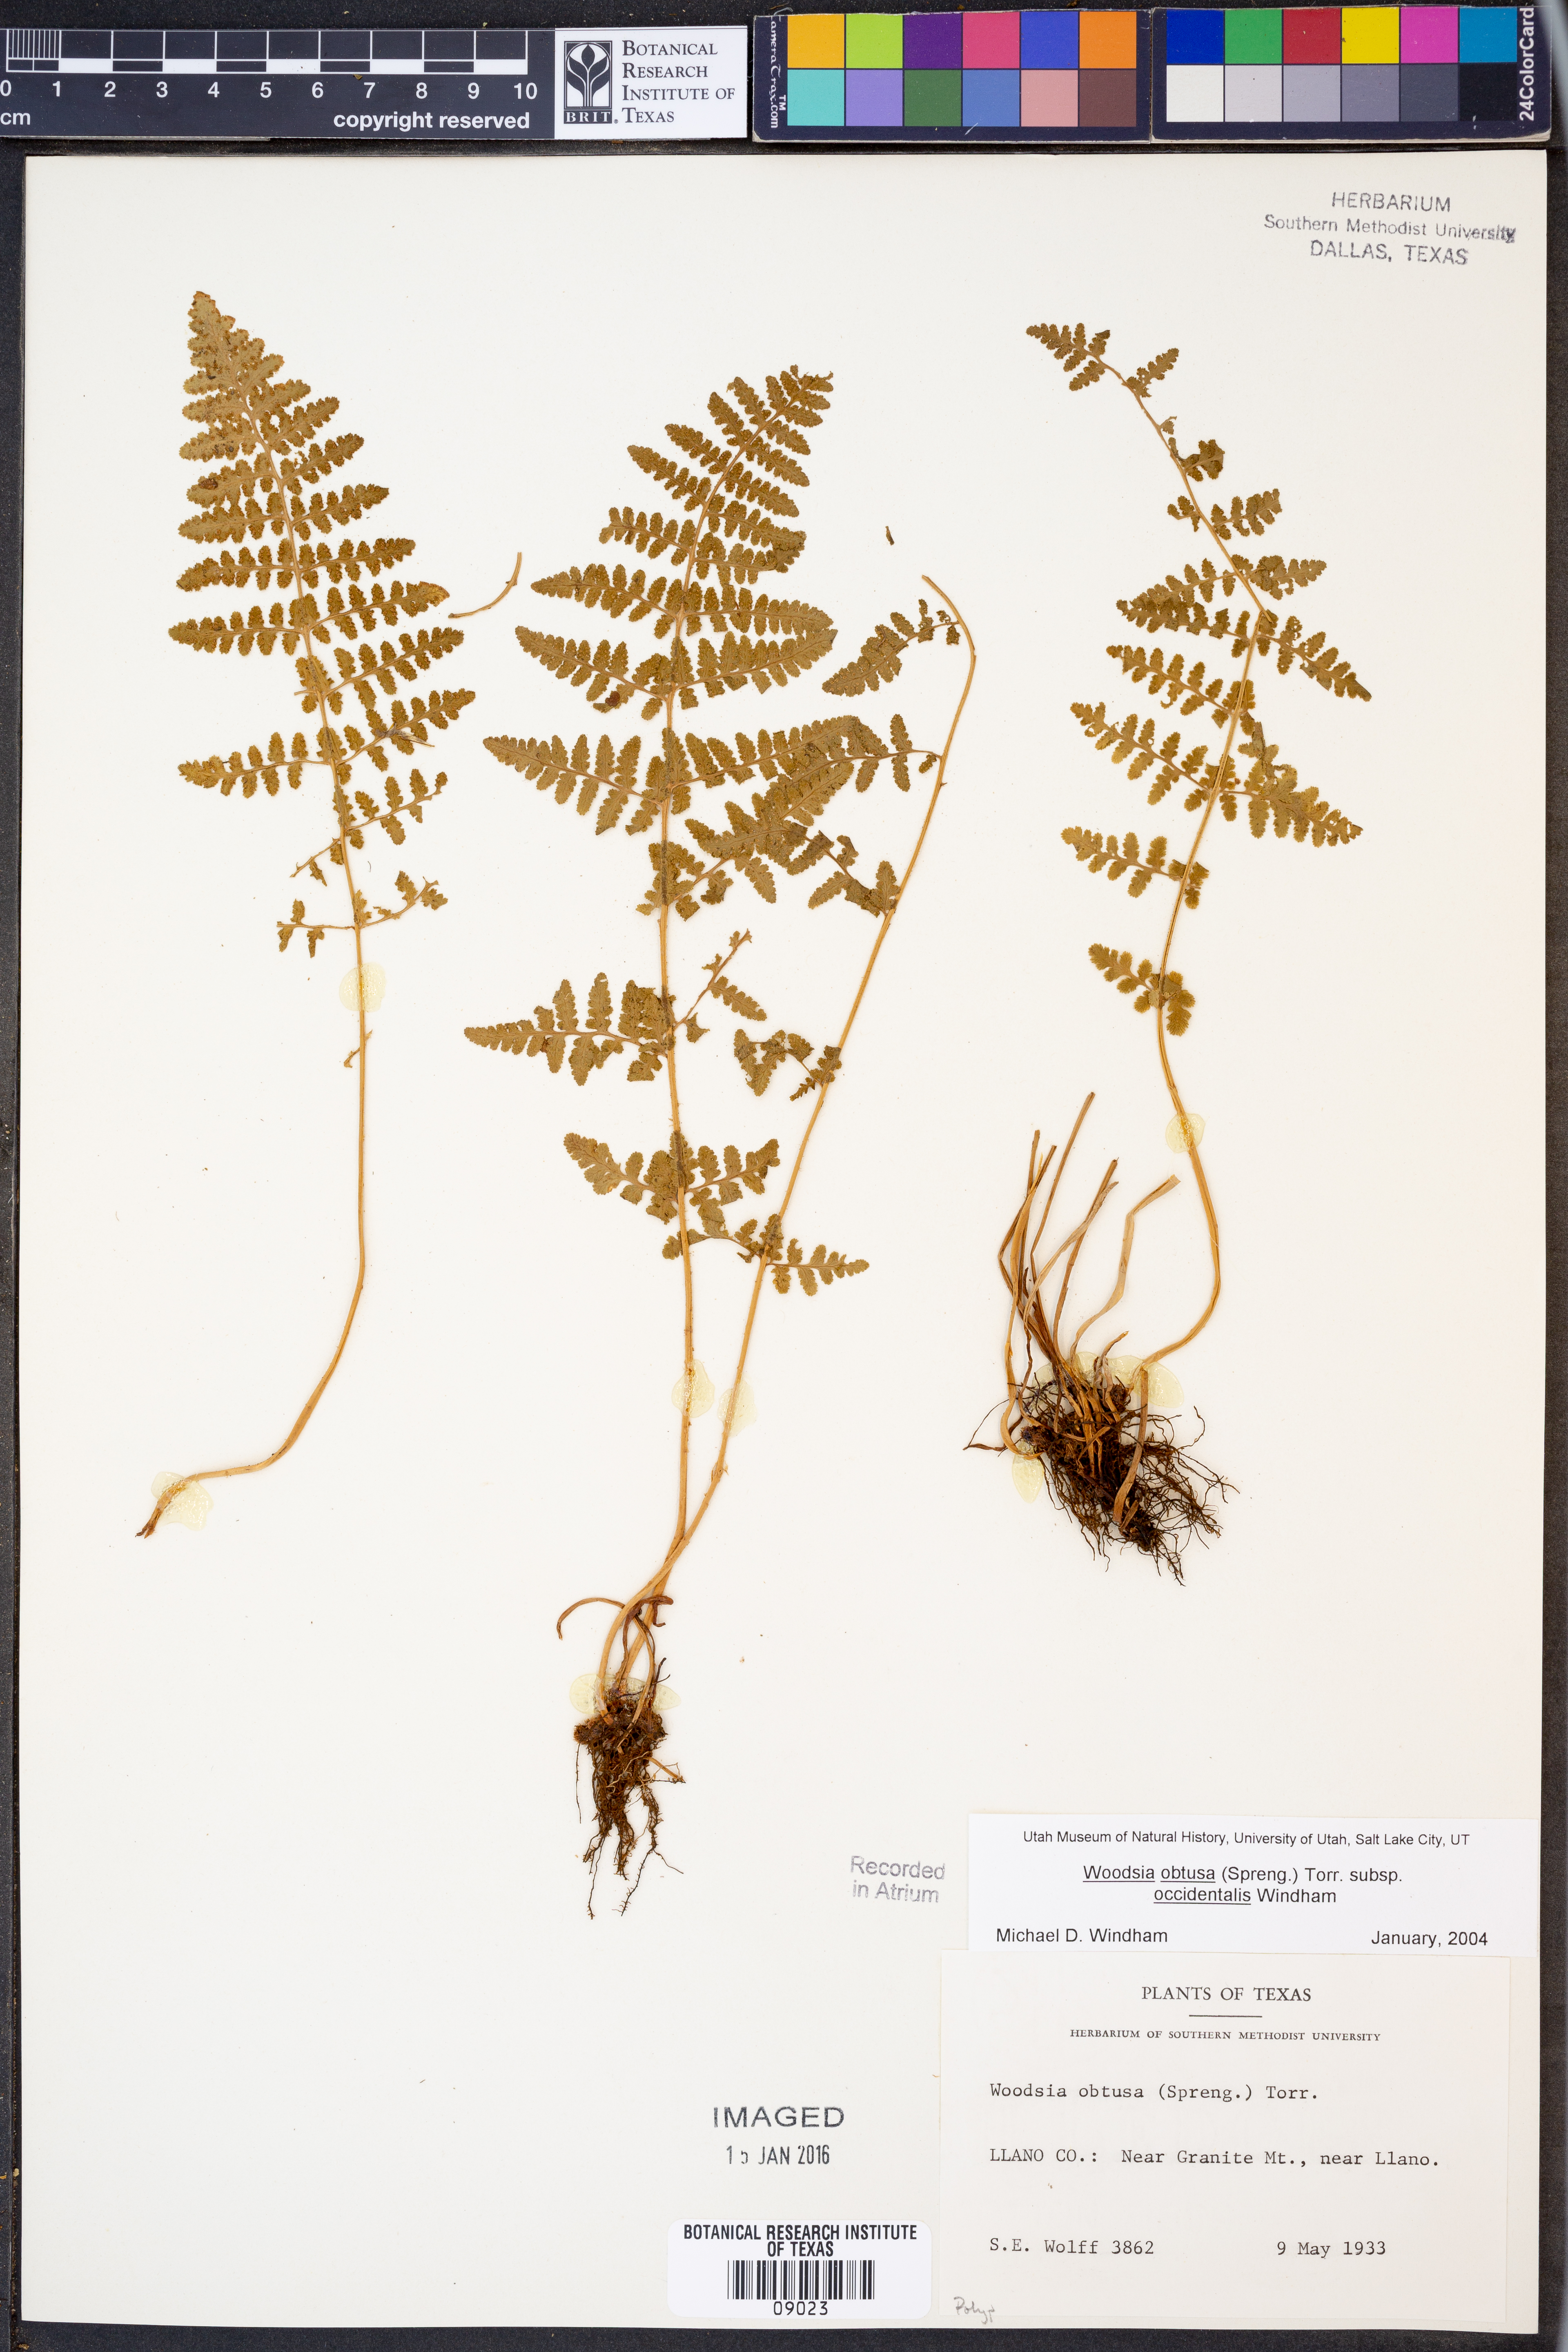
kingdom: Plantae
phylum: Tracheophyta
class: Polypodiopsida
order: Polypodiales
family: Woodsiaceae
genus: Physematium
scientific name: Physematium obtusum
